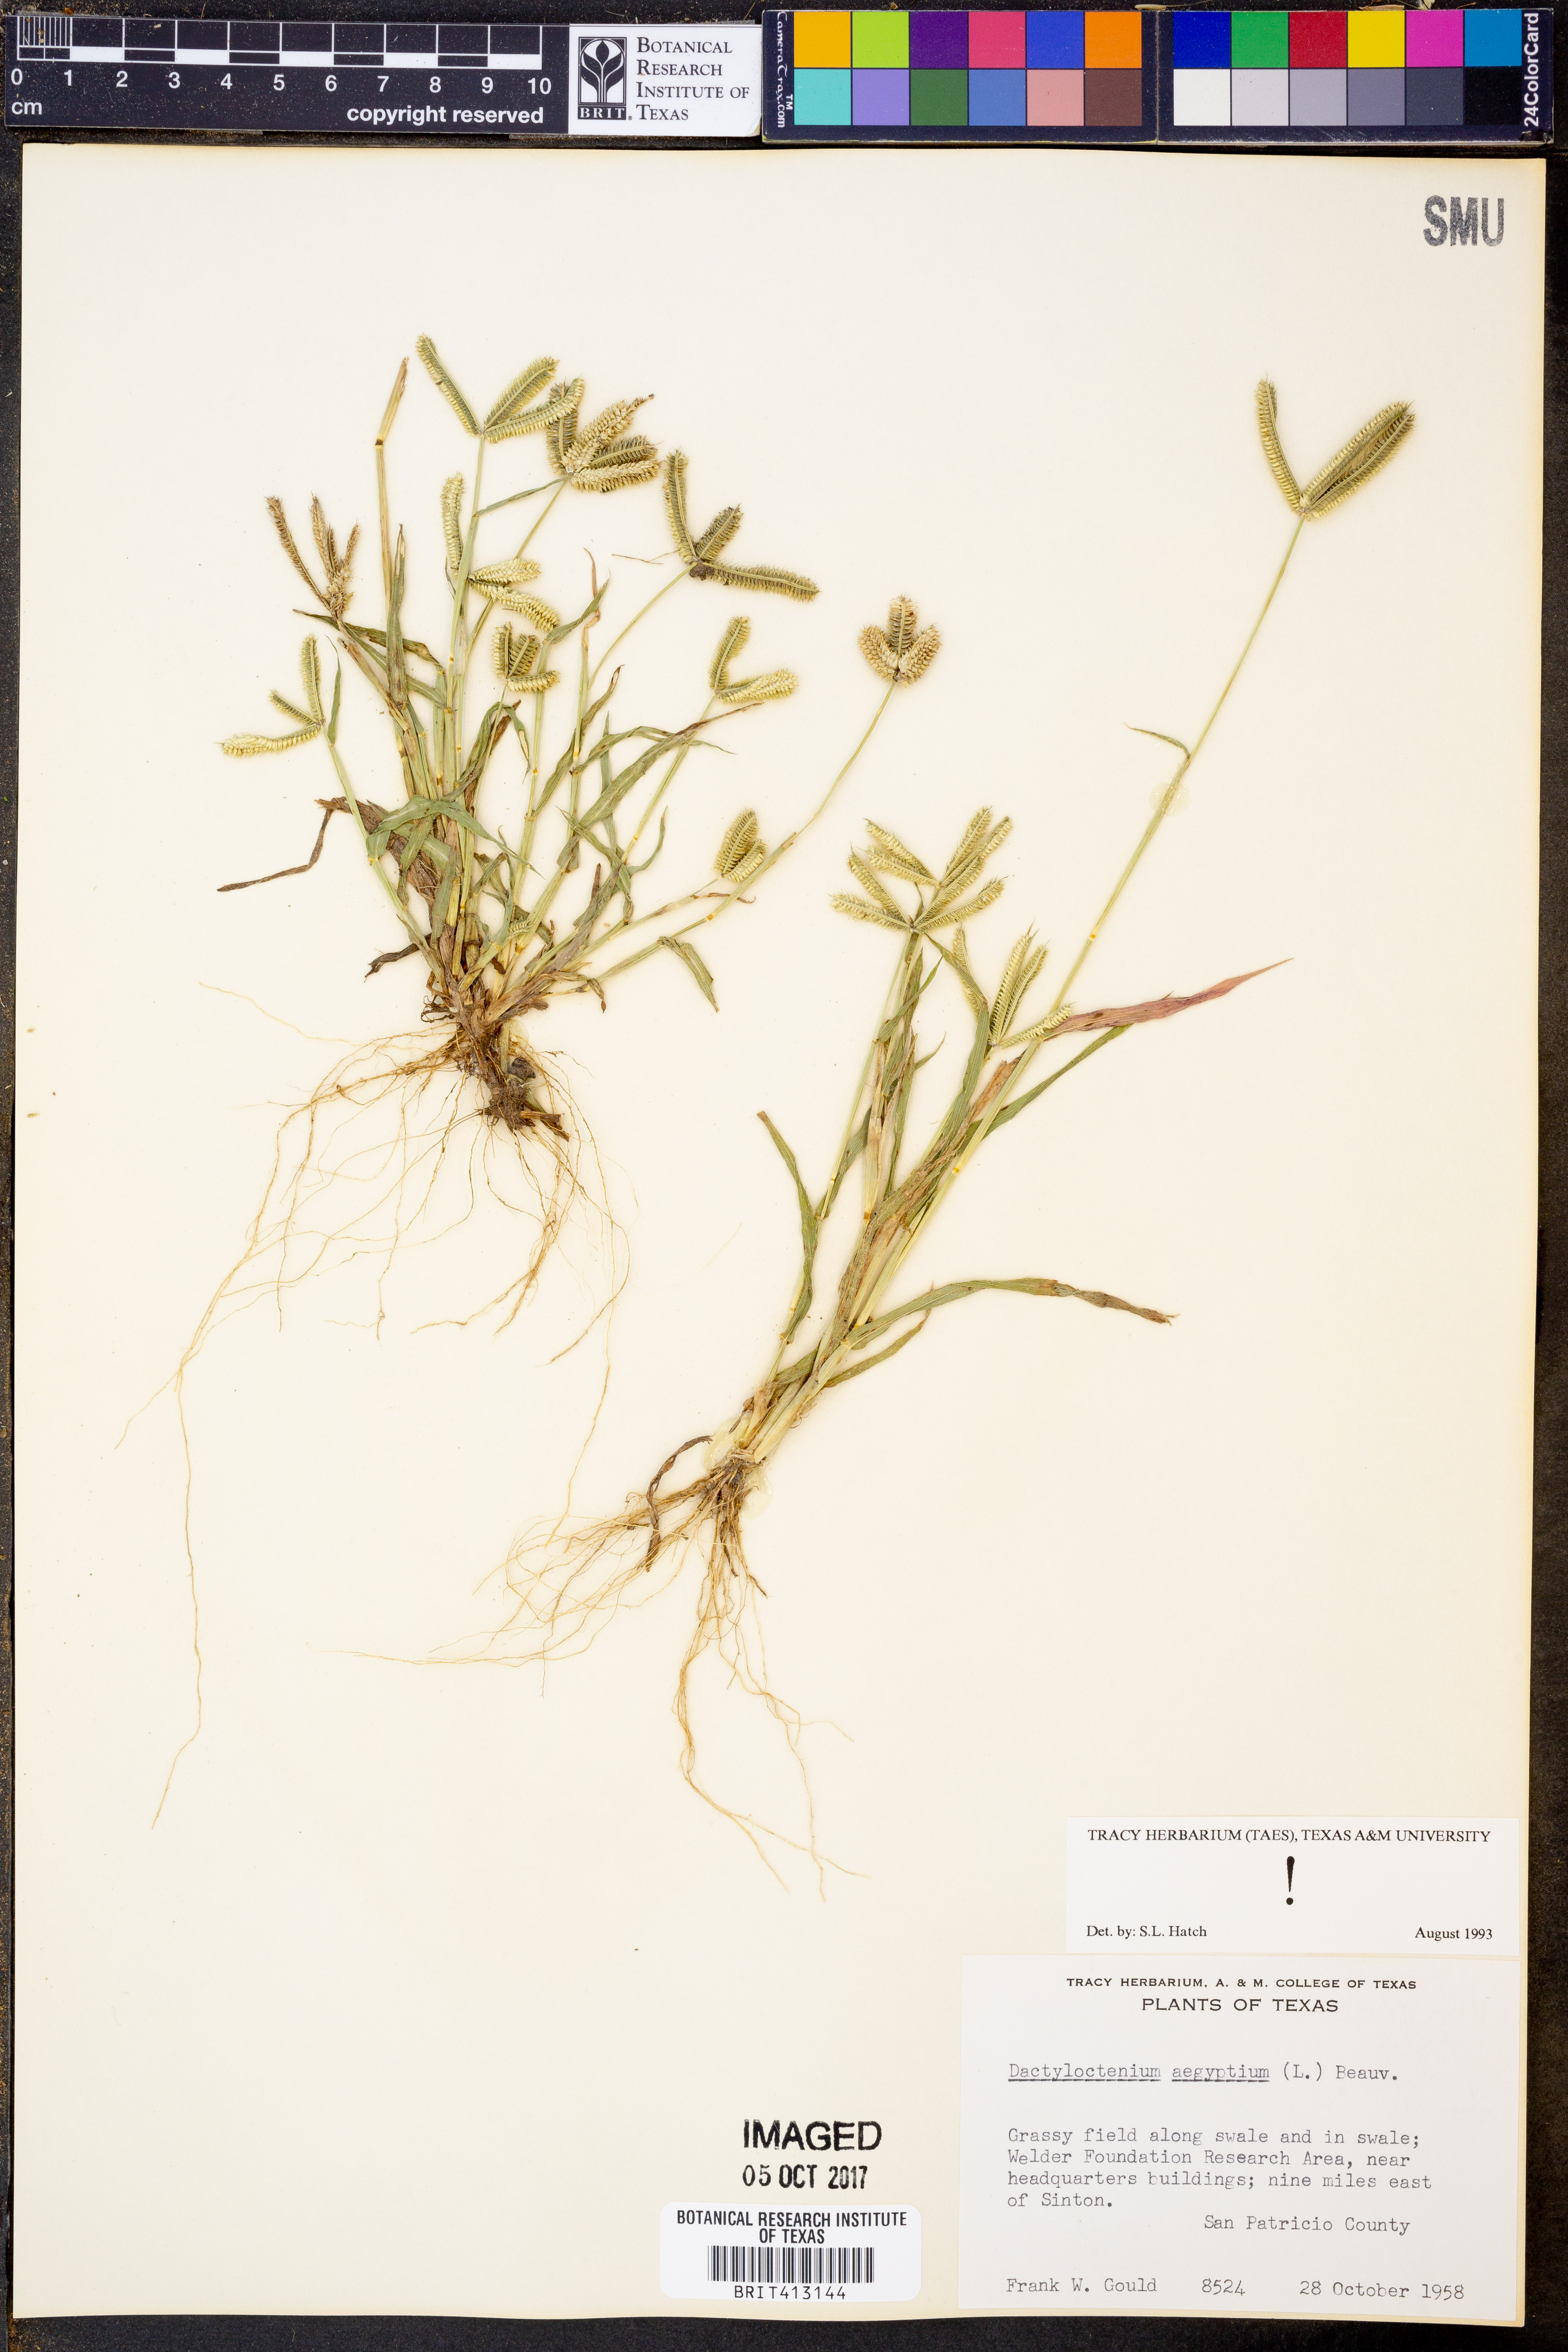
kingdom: Plantae
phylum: Tracheophyta
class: Liliopsida
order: Poales
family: Poaceae
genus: Dactyloctenium
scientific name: Dactyloctenium aegyptium
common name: Egyptian grass
